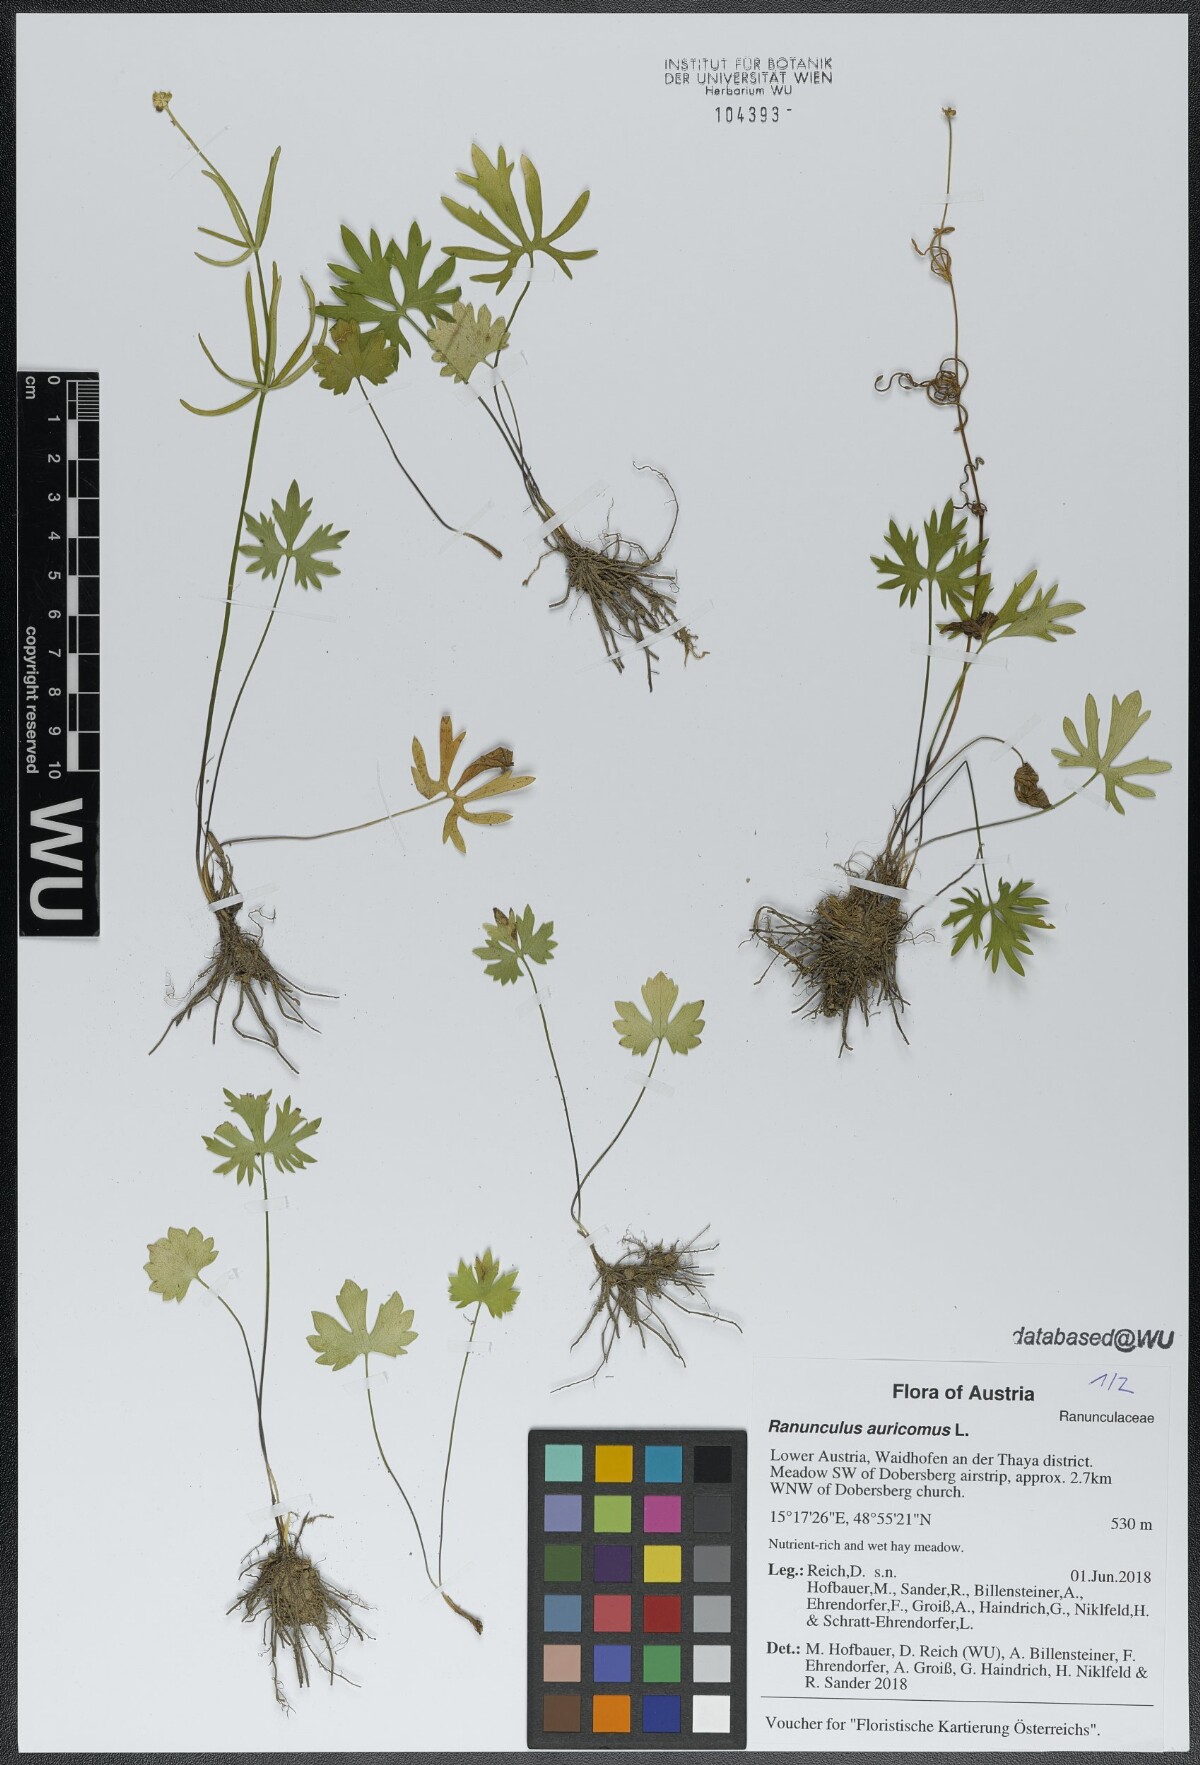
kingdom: Plantae
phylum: Tracheophyta
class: Magnoliopsida
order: Ranunculales
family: Ranunculaceae
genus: Ranunculus
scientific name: Ranunculus auricomus
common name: Goldilocks buttercup
